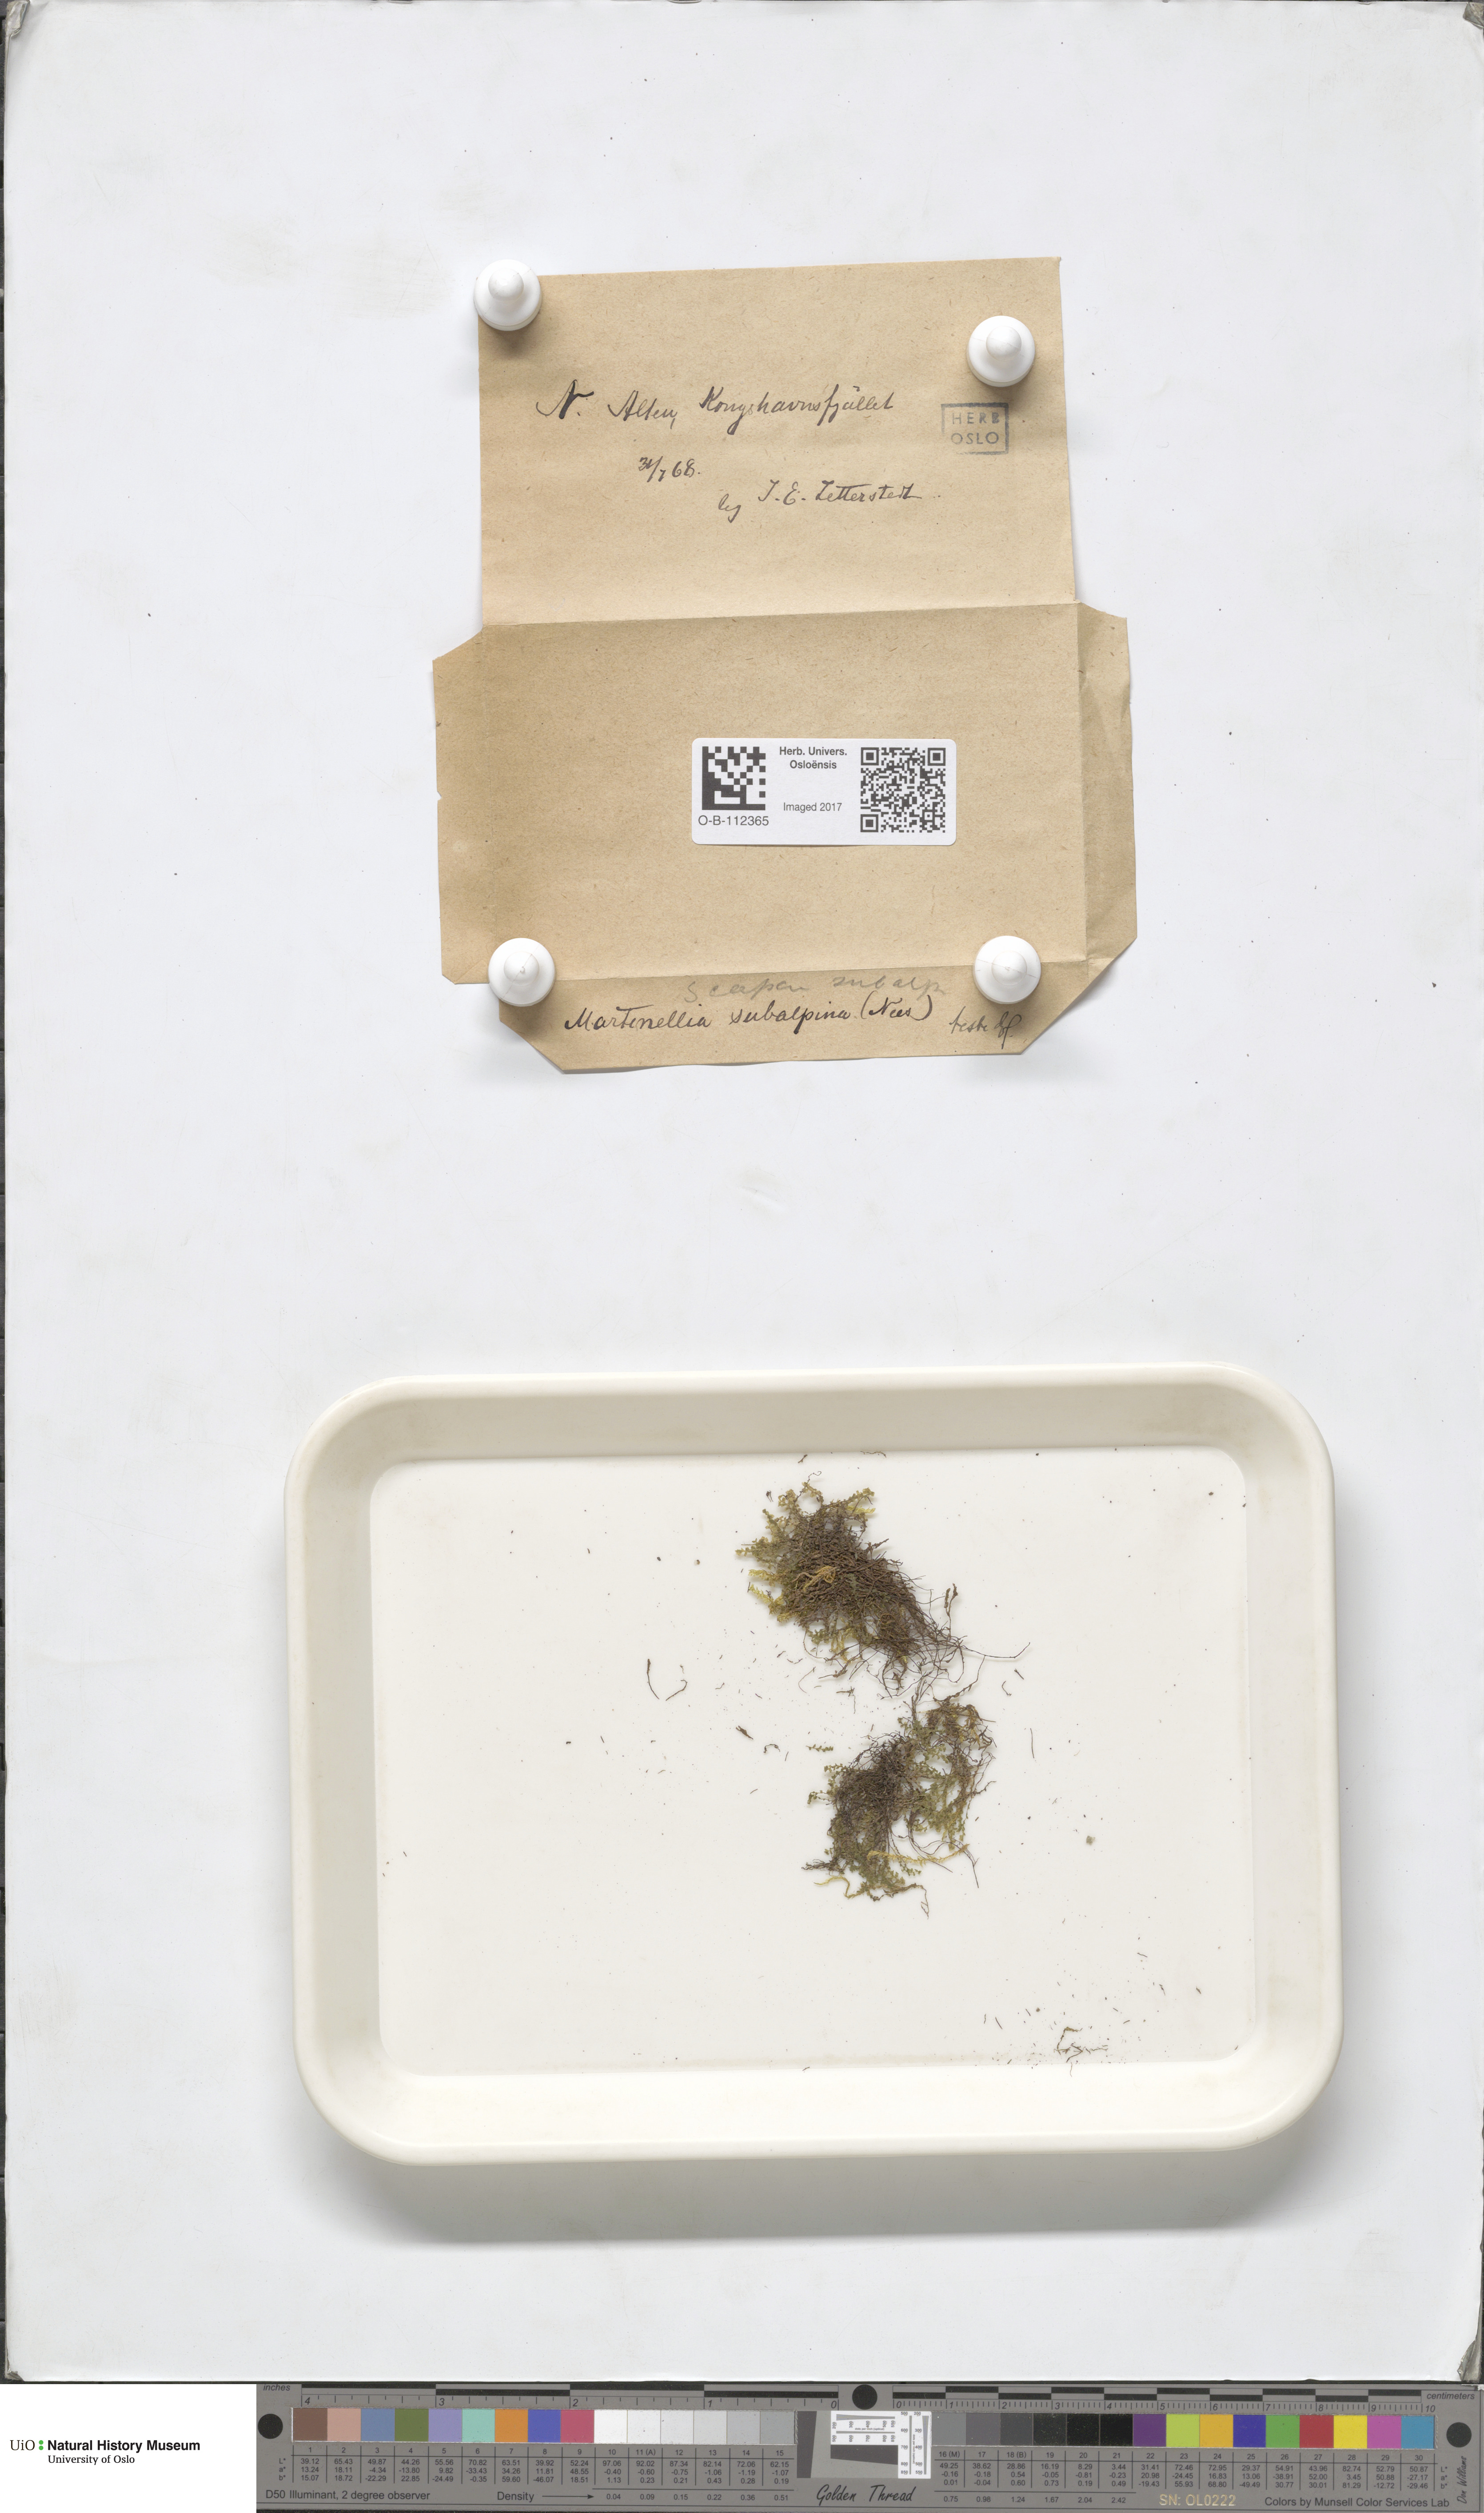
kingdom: Plantae
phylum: Marchantiophyta
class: Jungermanniopsida
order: Jungermanniales
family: Scapaniaceae
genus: Scapania
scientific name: Scapania subalpina
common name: Subalpine earwort
